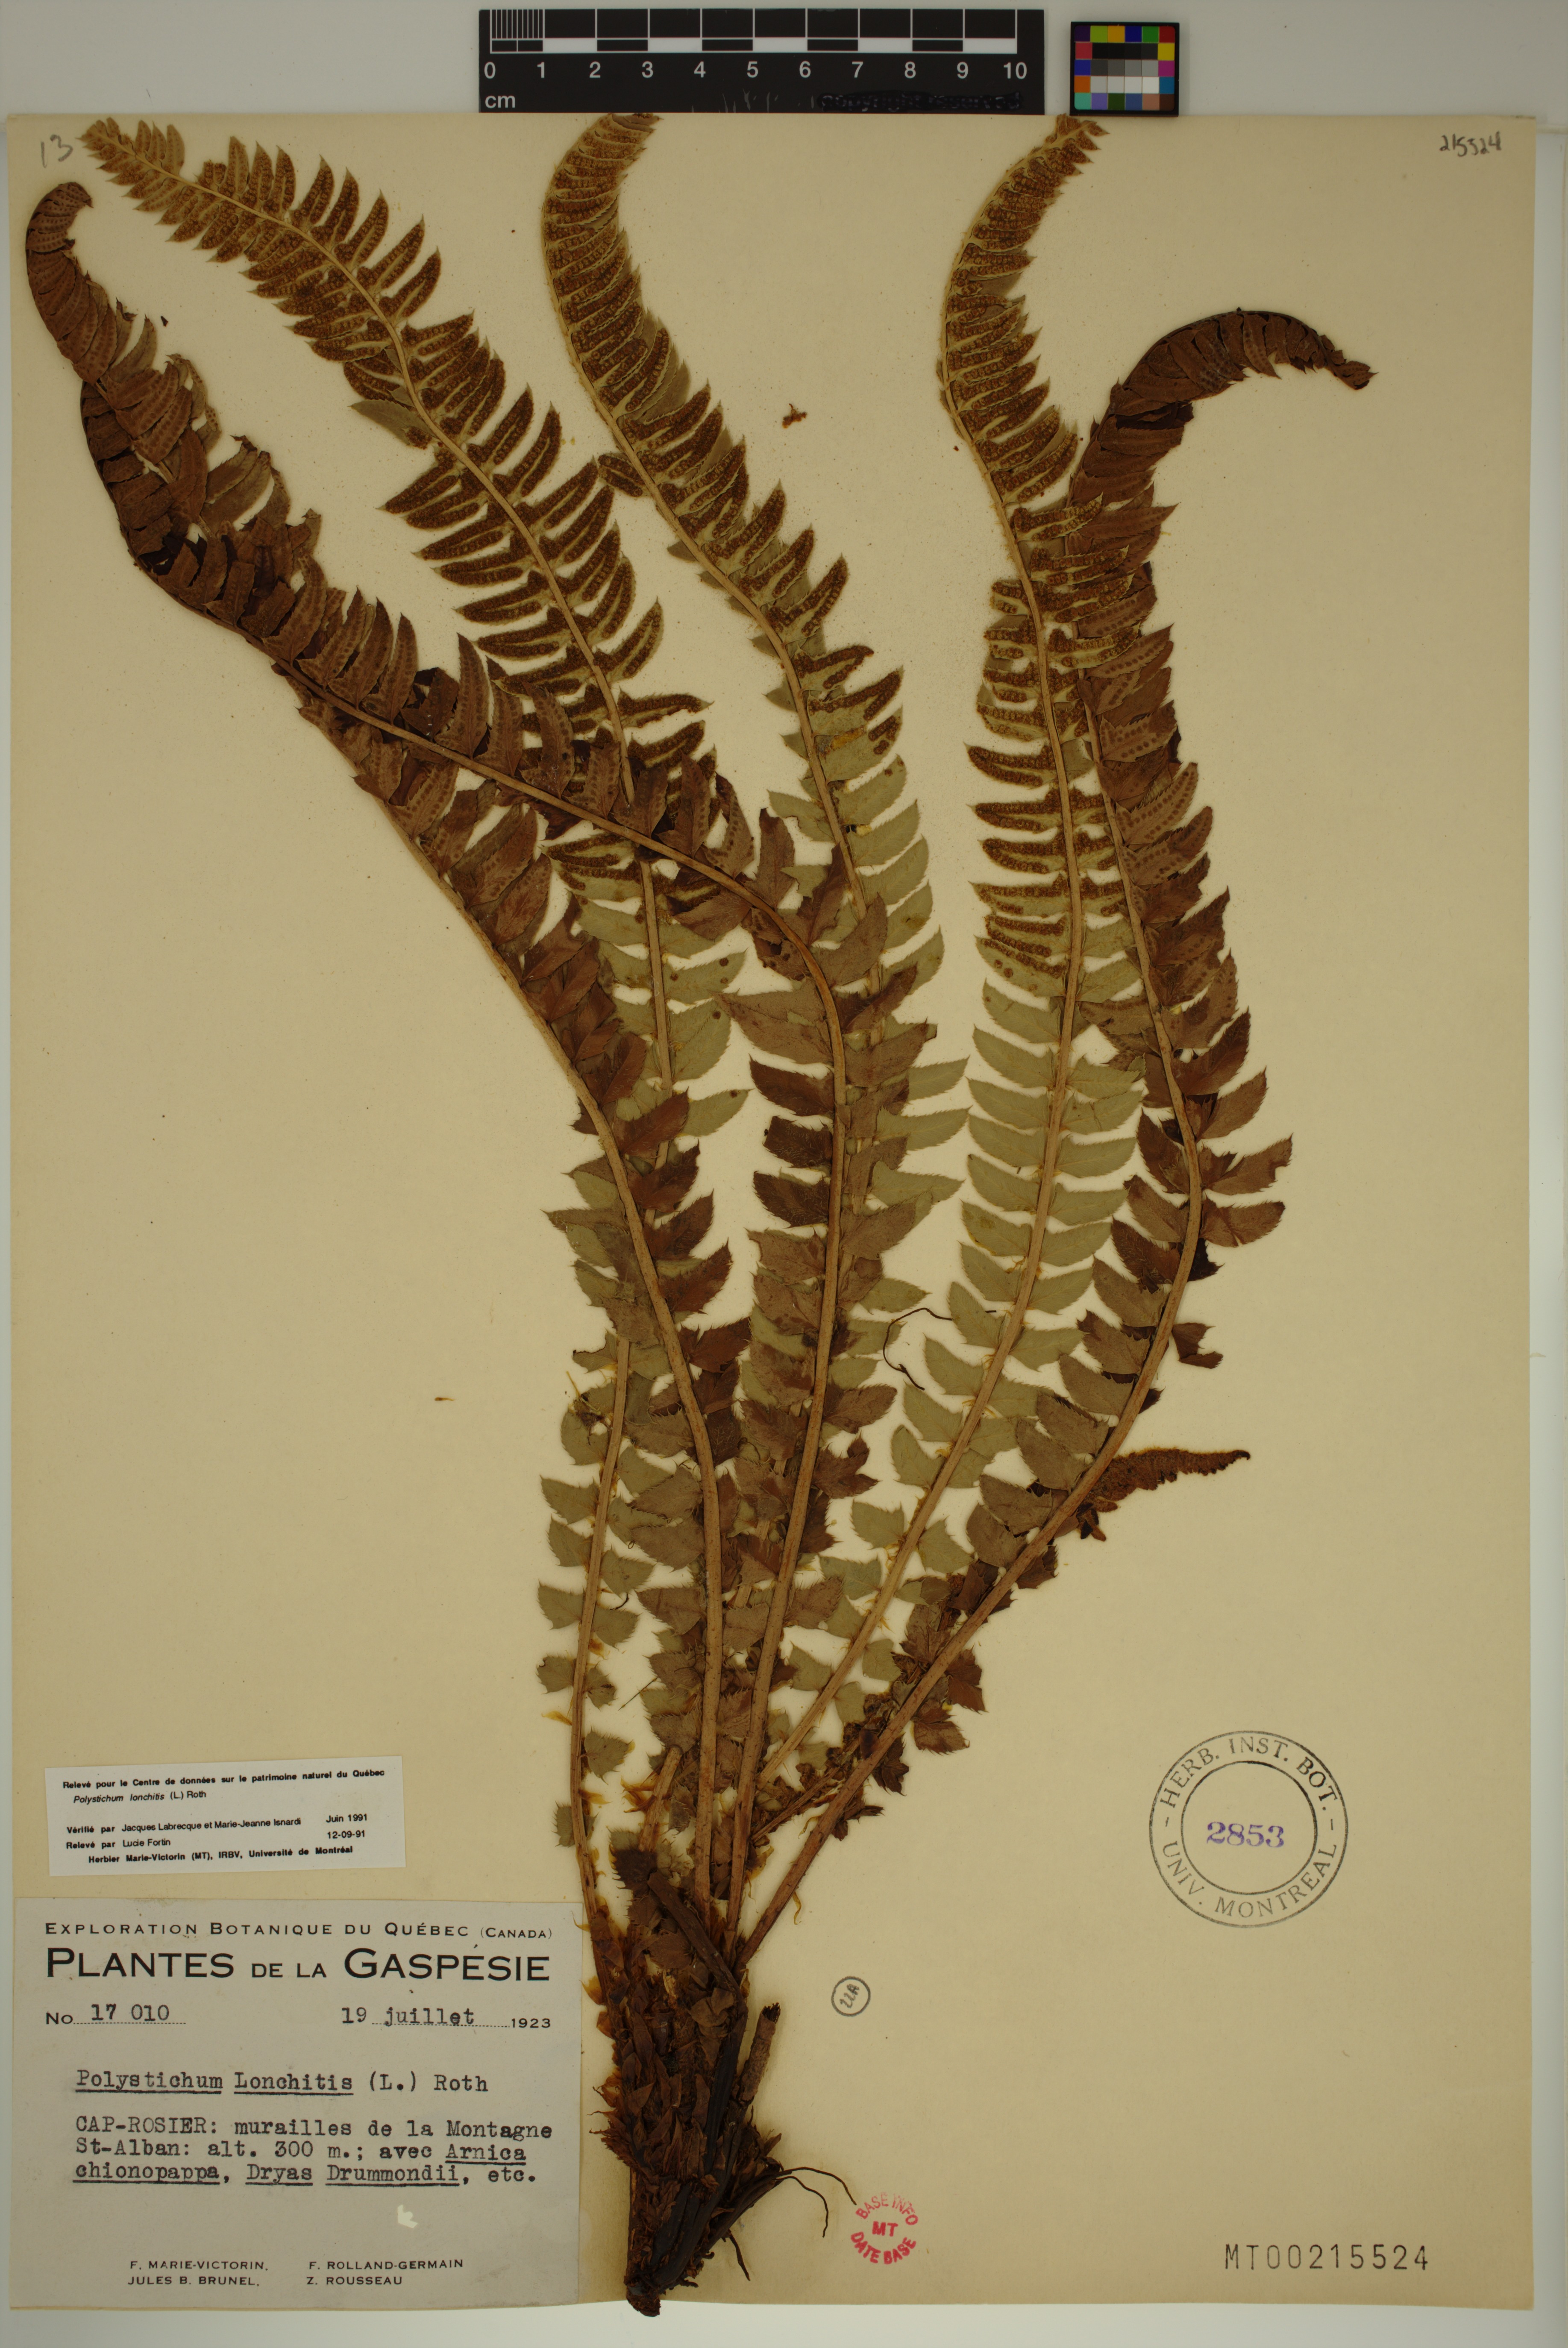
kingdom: Plantae
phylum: Tracheophyta
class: Polypodiopsida
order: Polypodiales
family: Dryopteridaceae
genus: Polystichum
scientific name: Polystichum lonchitis
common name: Holly fern
